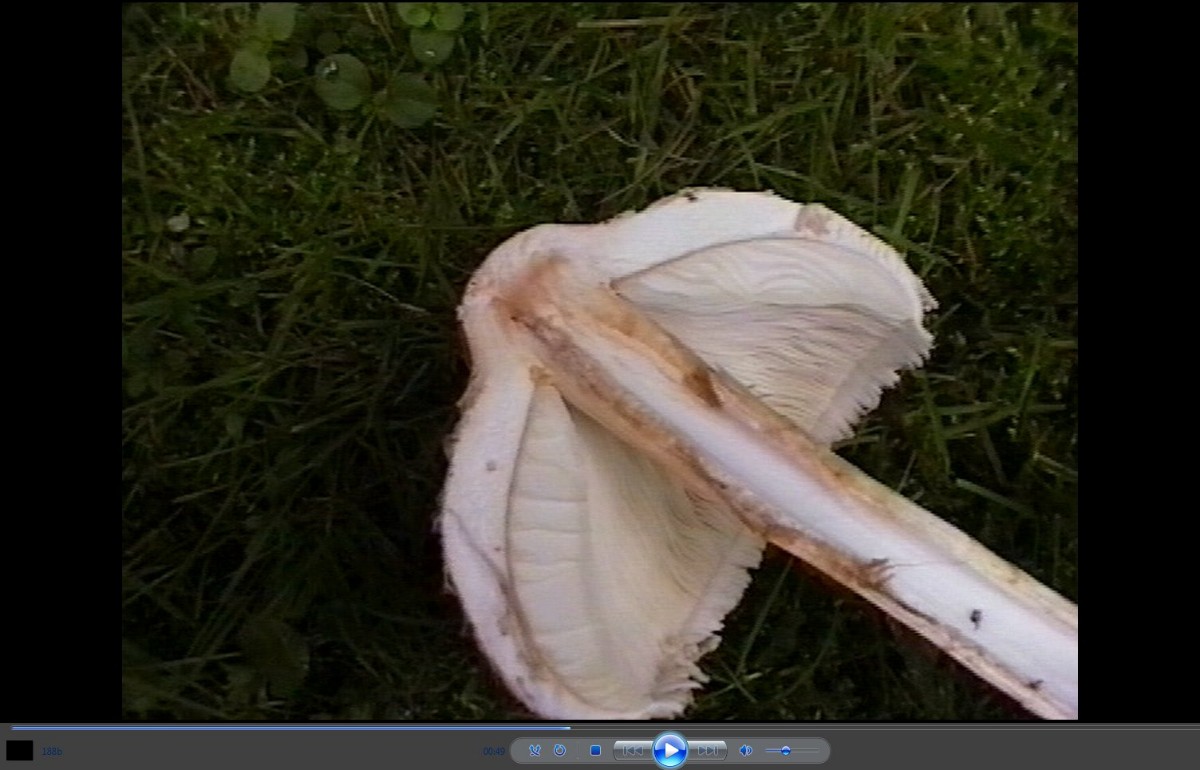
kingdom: Fungi
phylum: Basidiomycota
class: Agaricomycetes
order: Agaricales
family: Agaricaceae
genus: Chlorophyllum
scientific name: Chlorophyllum olivieri
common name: almindelig rabarberhat
